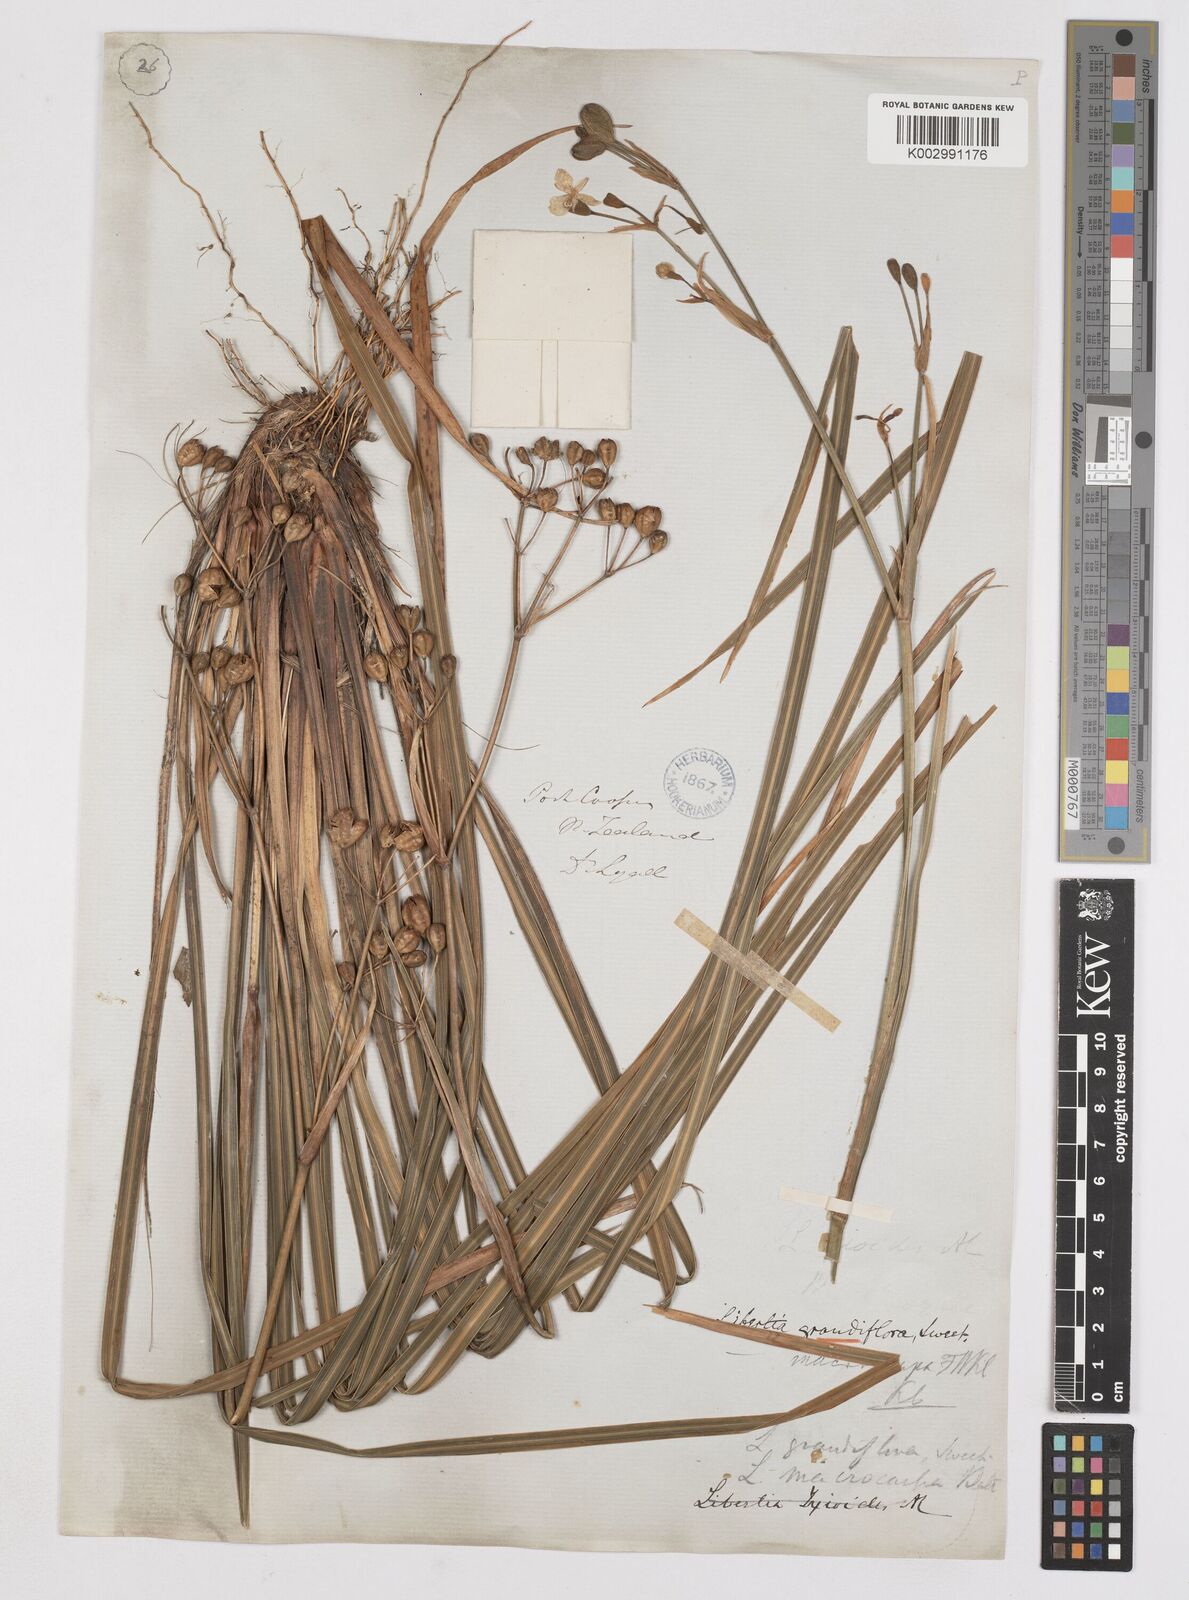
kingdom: Plantae
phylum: Tracheophyta
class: Liliopsida
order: Asparagales
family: Iridaceae
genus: Libertia
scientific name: Libertia ixioides
